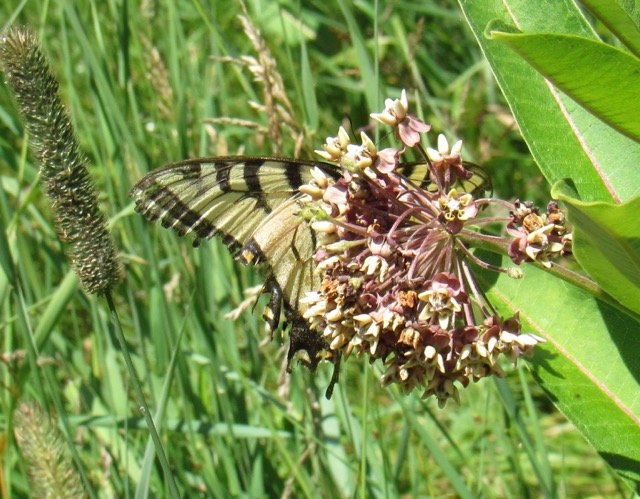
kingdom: Animalia
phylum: Arthropoda
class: Insecta
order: Lepidoptera
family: Papilionidae
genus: Pterourus
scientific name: Pterourus
